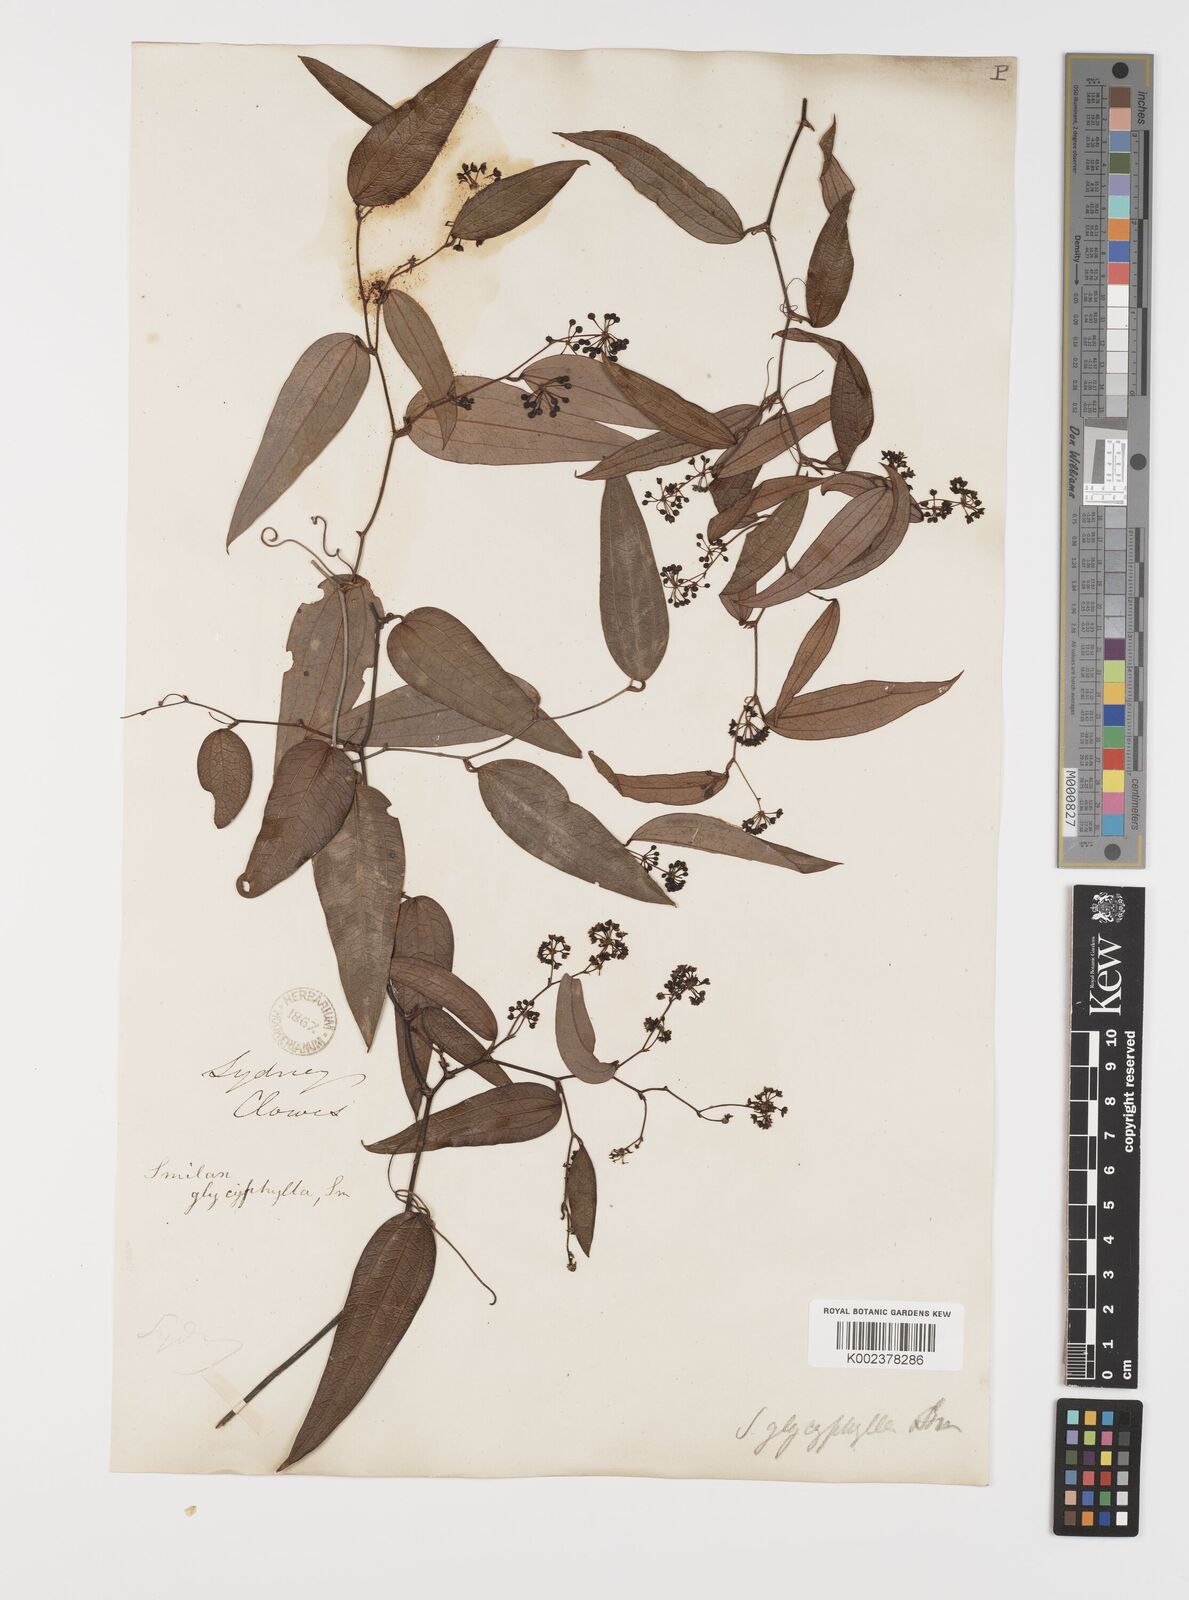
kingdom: Plantae
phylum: Tracheophyta
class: Liliopsida
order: Liliales
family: Smilacaceae
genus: Smilax
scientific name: Smilax leucophylla
